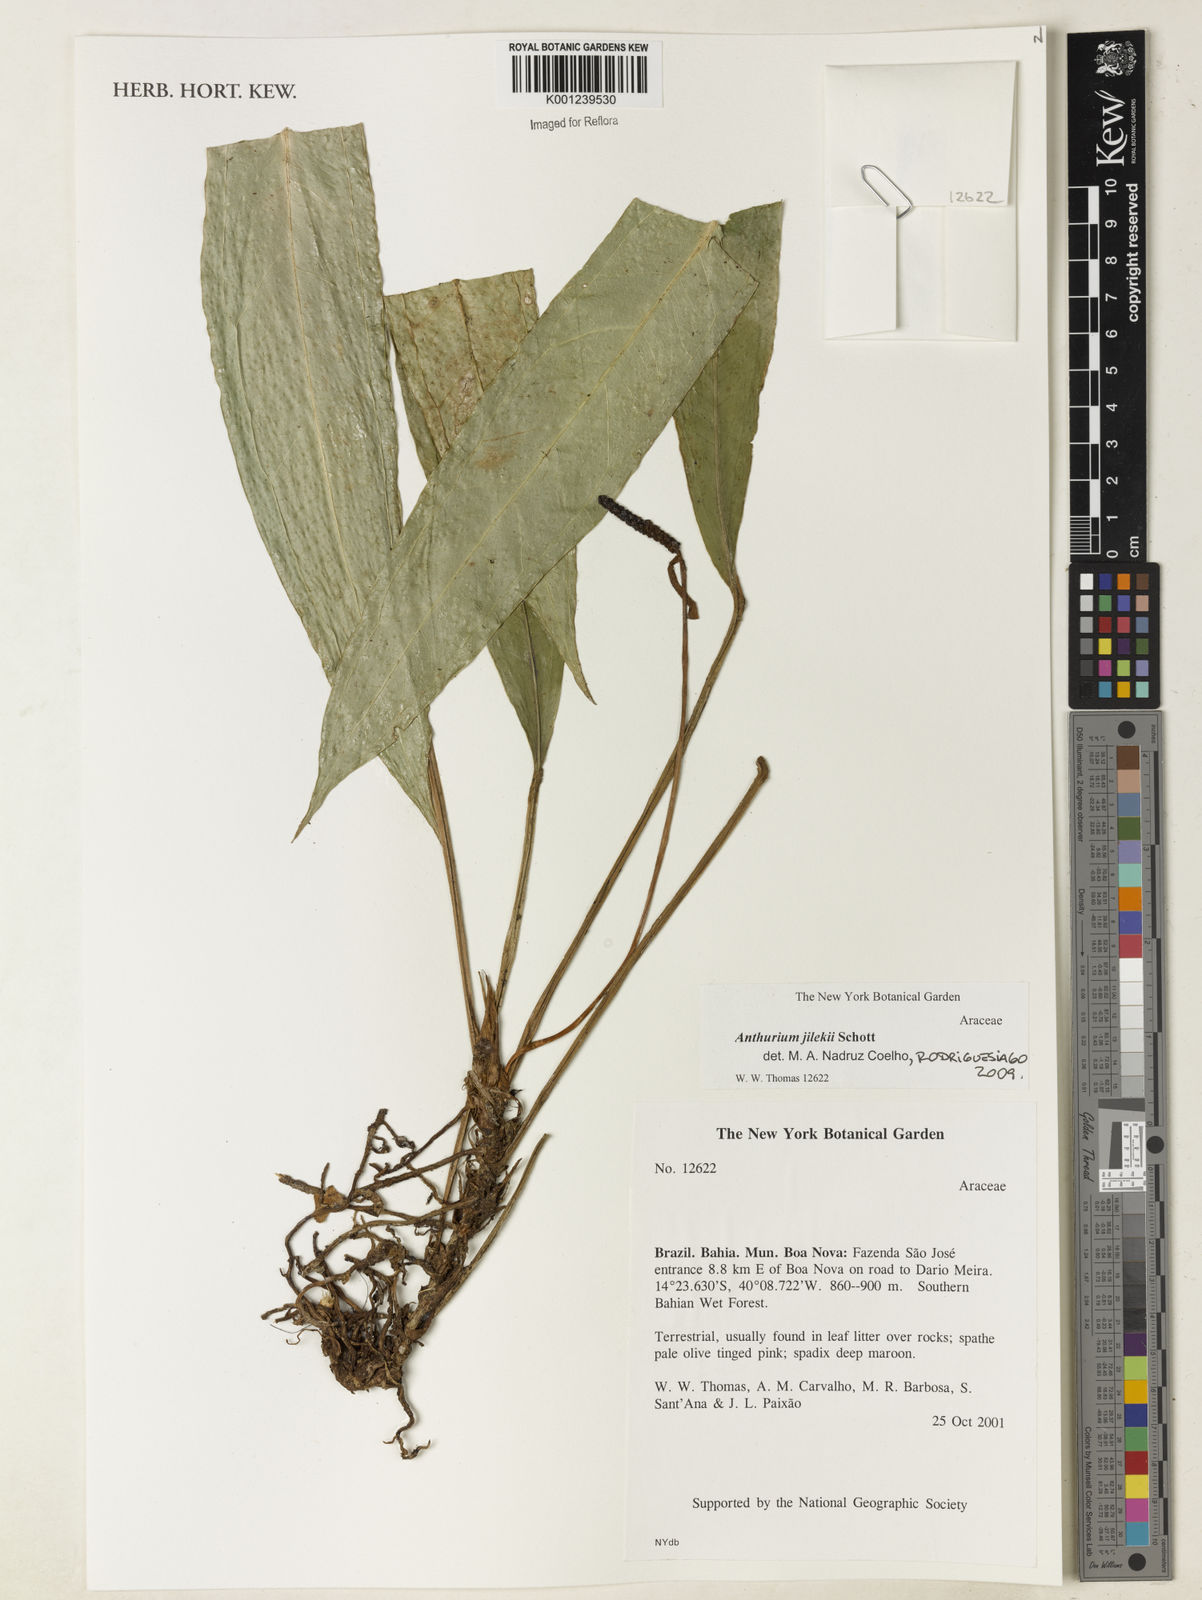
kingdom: Plantae
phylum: Tracheophyta
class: Liliopsida
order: Alismatales
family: Araceae
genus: Anthurium
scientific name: Anthurium jilekii
